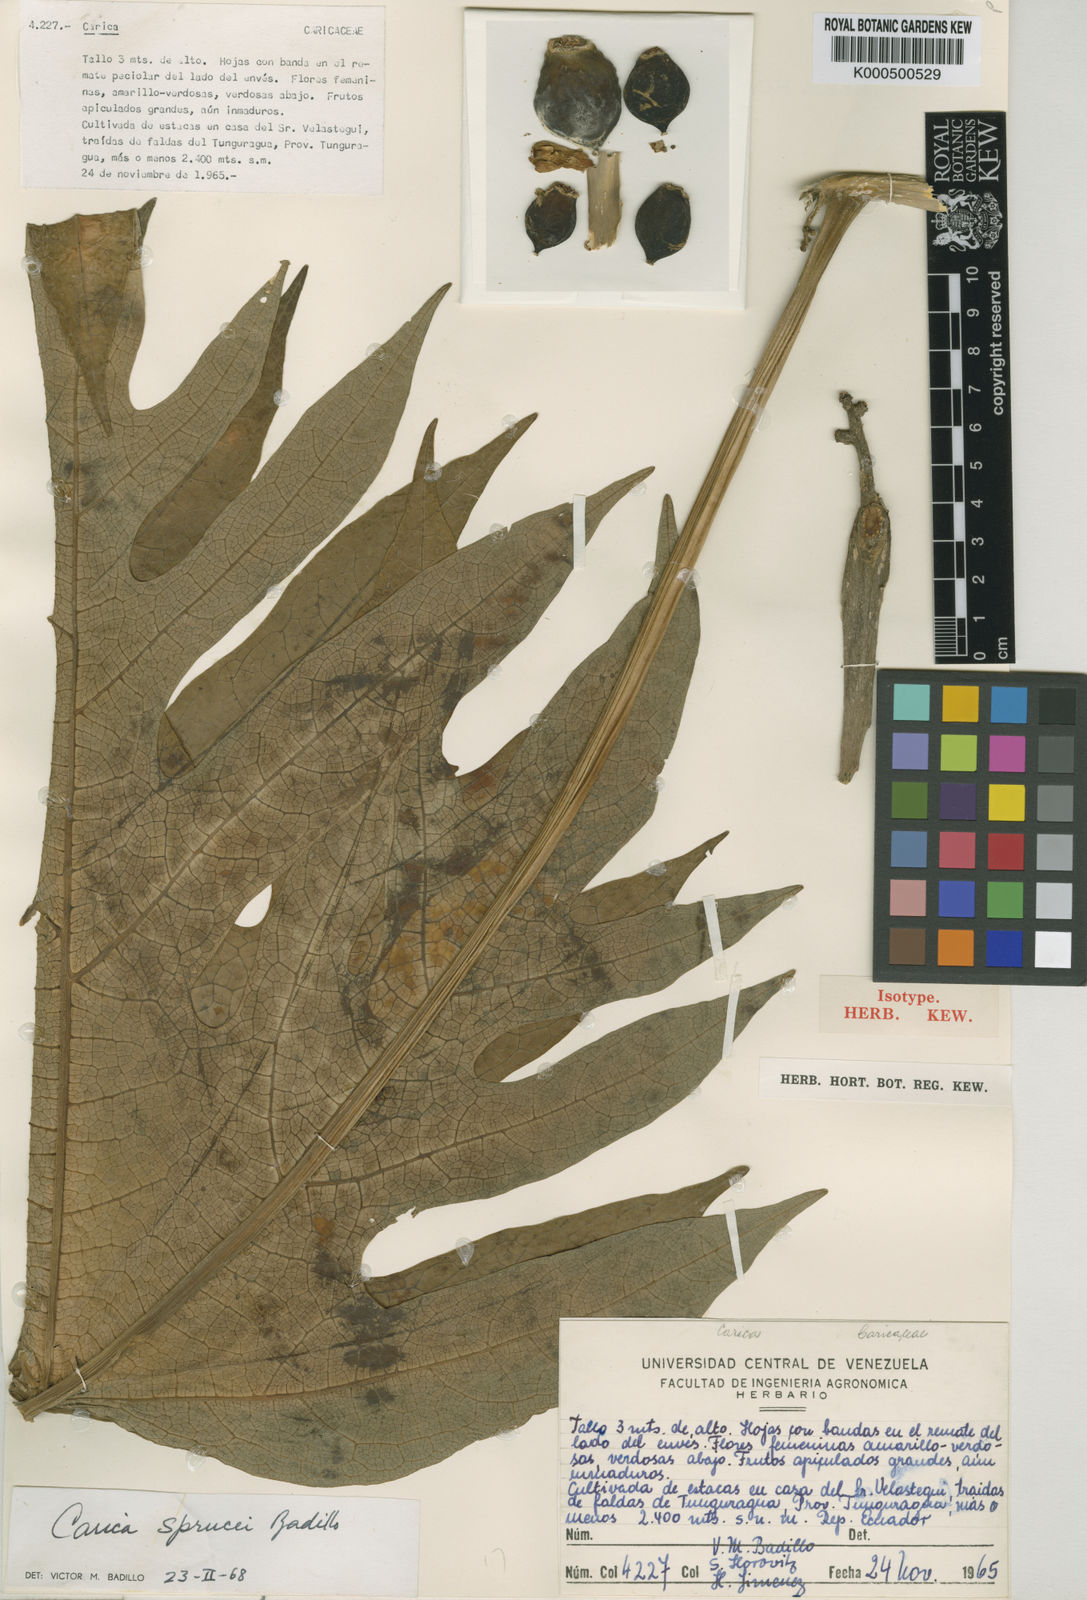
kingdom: Plantae
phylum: Tracheophyta
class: Magnoliopsida
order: Brassicales
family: Caricaceae
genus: Vasconcellea
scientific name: Vasconcellea sprucei
